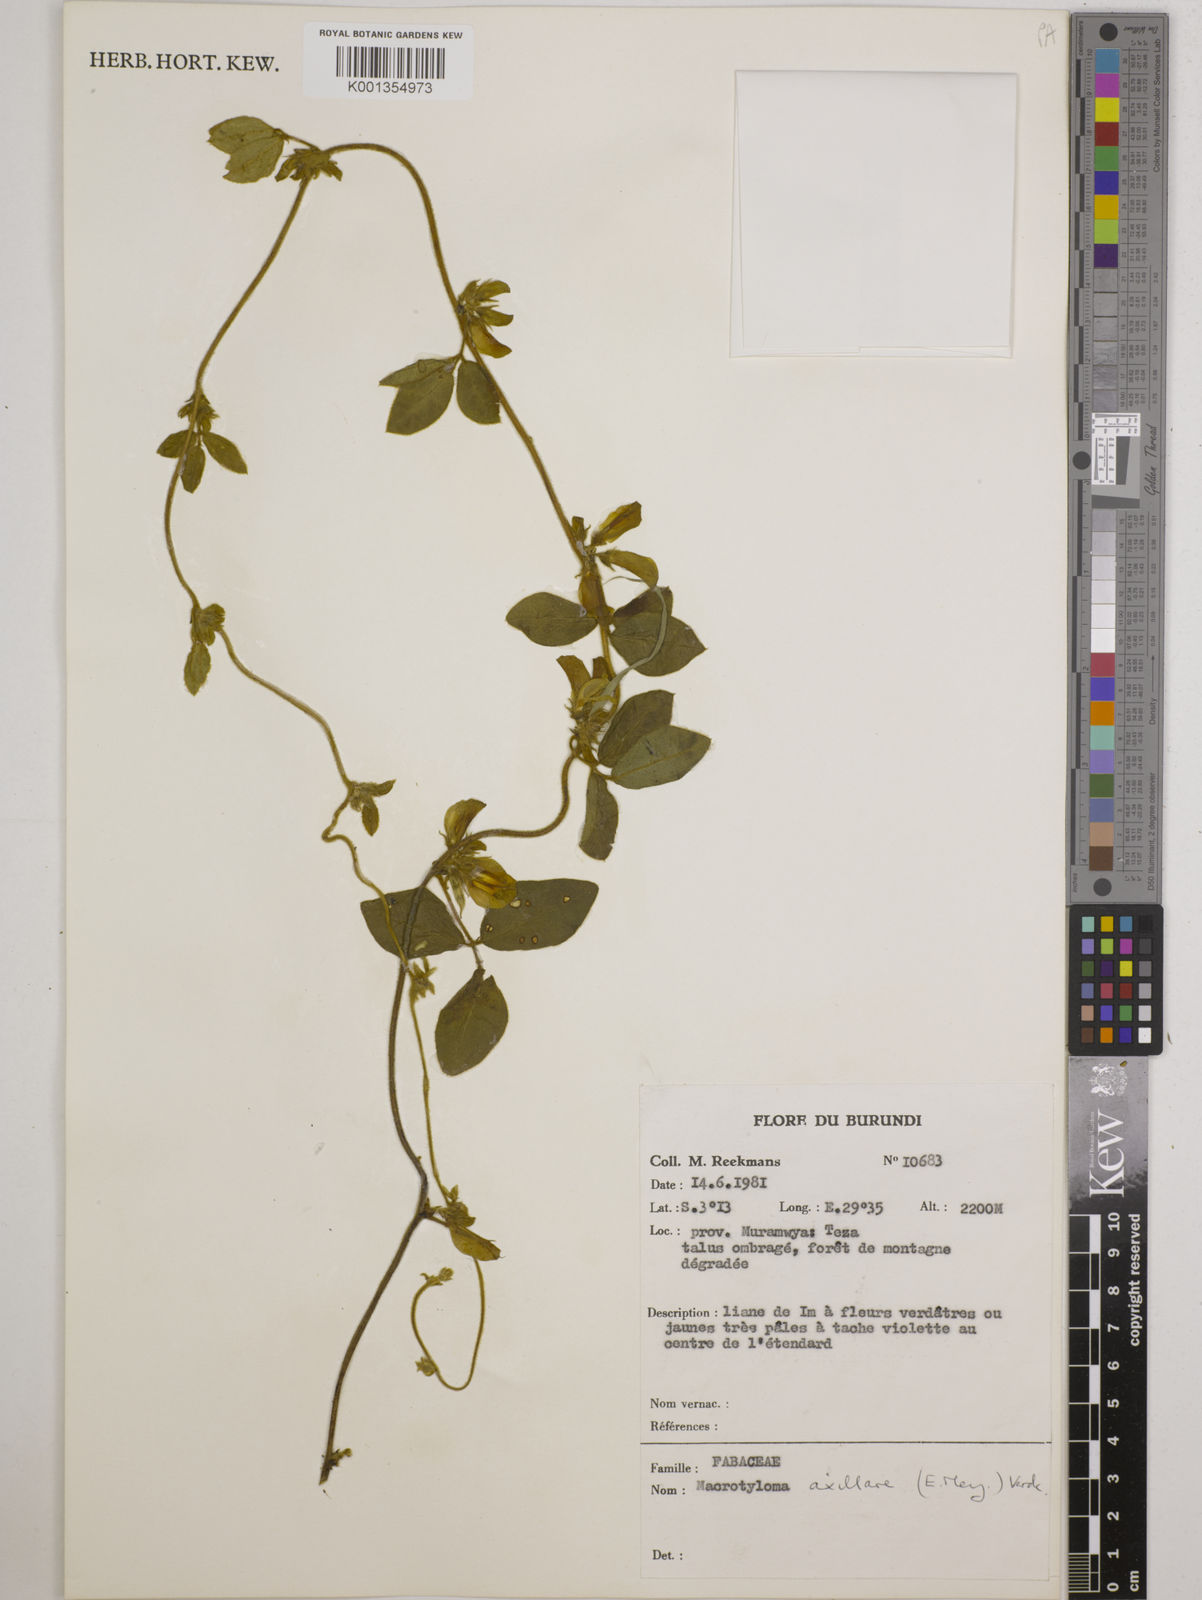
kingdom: Plantae
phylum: Tracheophyta
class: Magnoliopsida
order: Fabales
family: Fabaceae
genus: Macrotyloma
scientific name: Macrotyloma axillare
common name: Perennial horsegram
